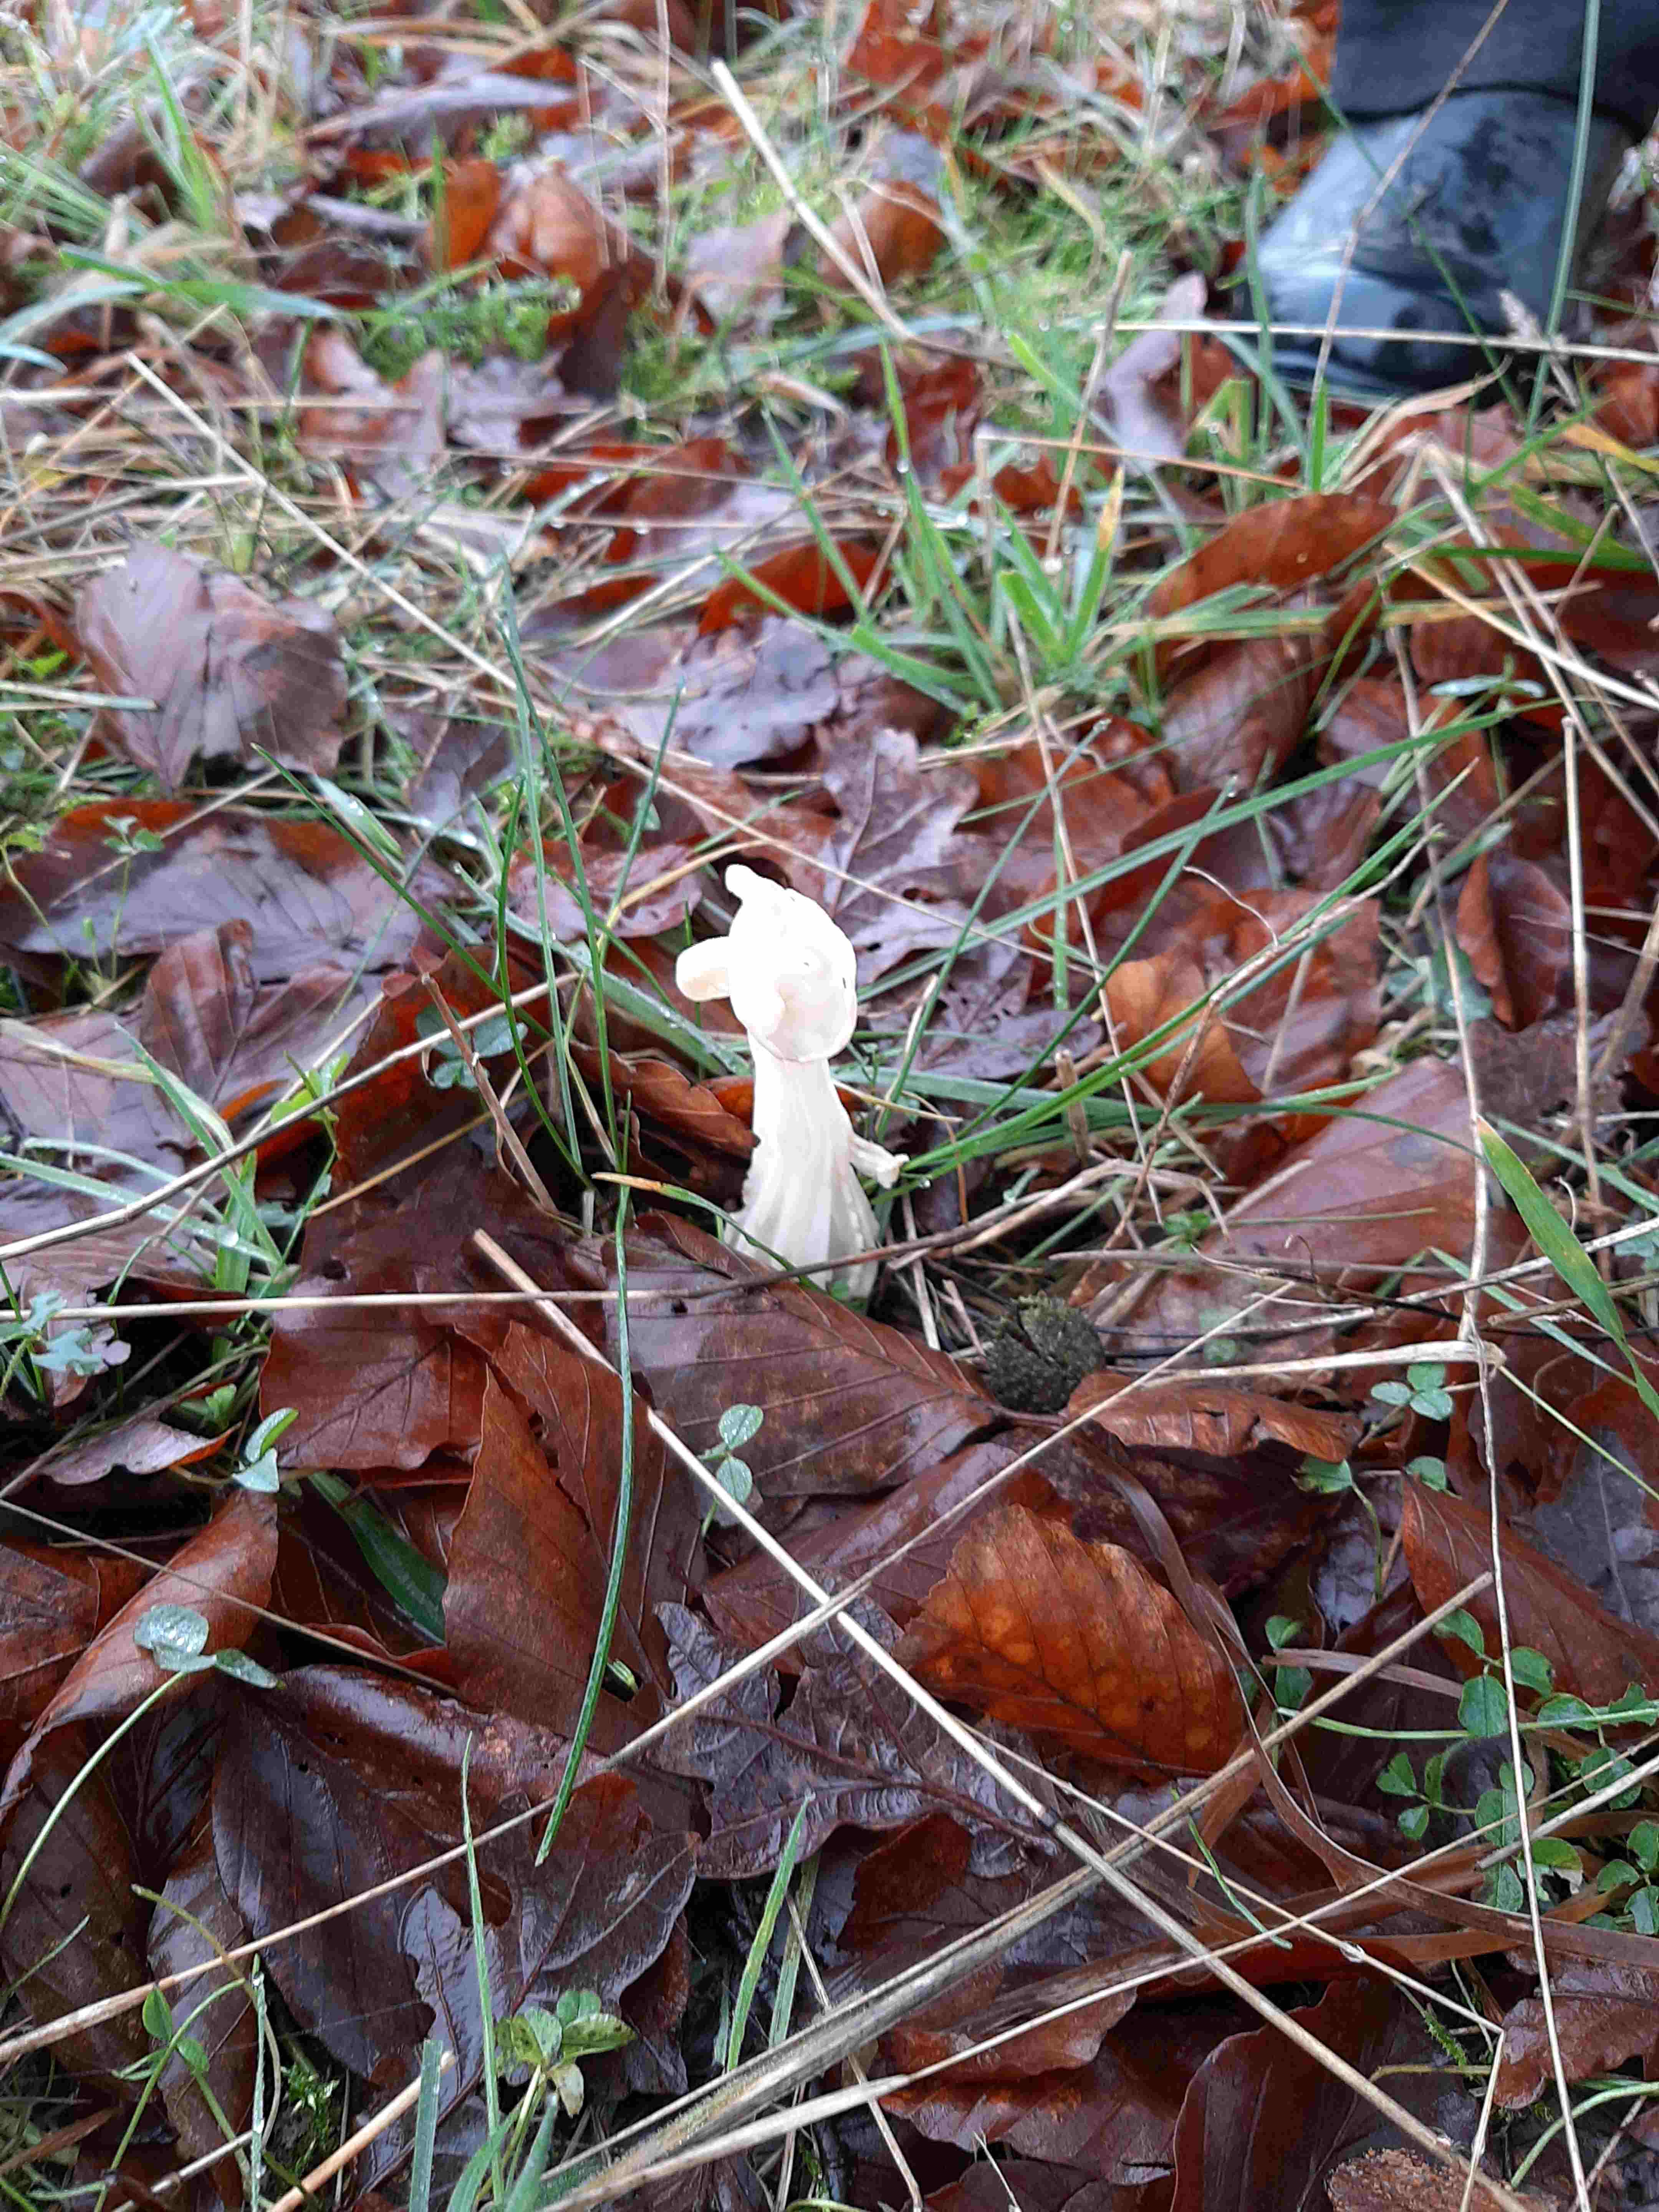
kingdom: Fungi
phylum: Ascomycota
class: Pezizomycetes
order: Pezizales
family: Helvellaceae
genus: Helvella
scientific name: Helvella crispa
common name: kruset foldhat
